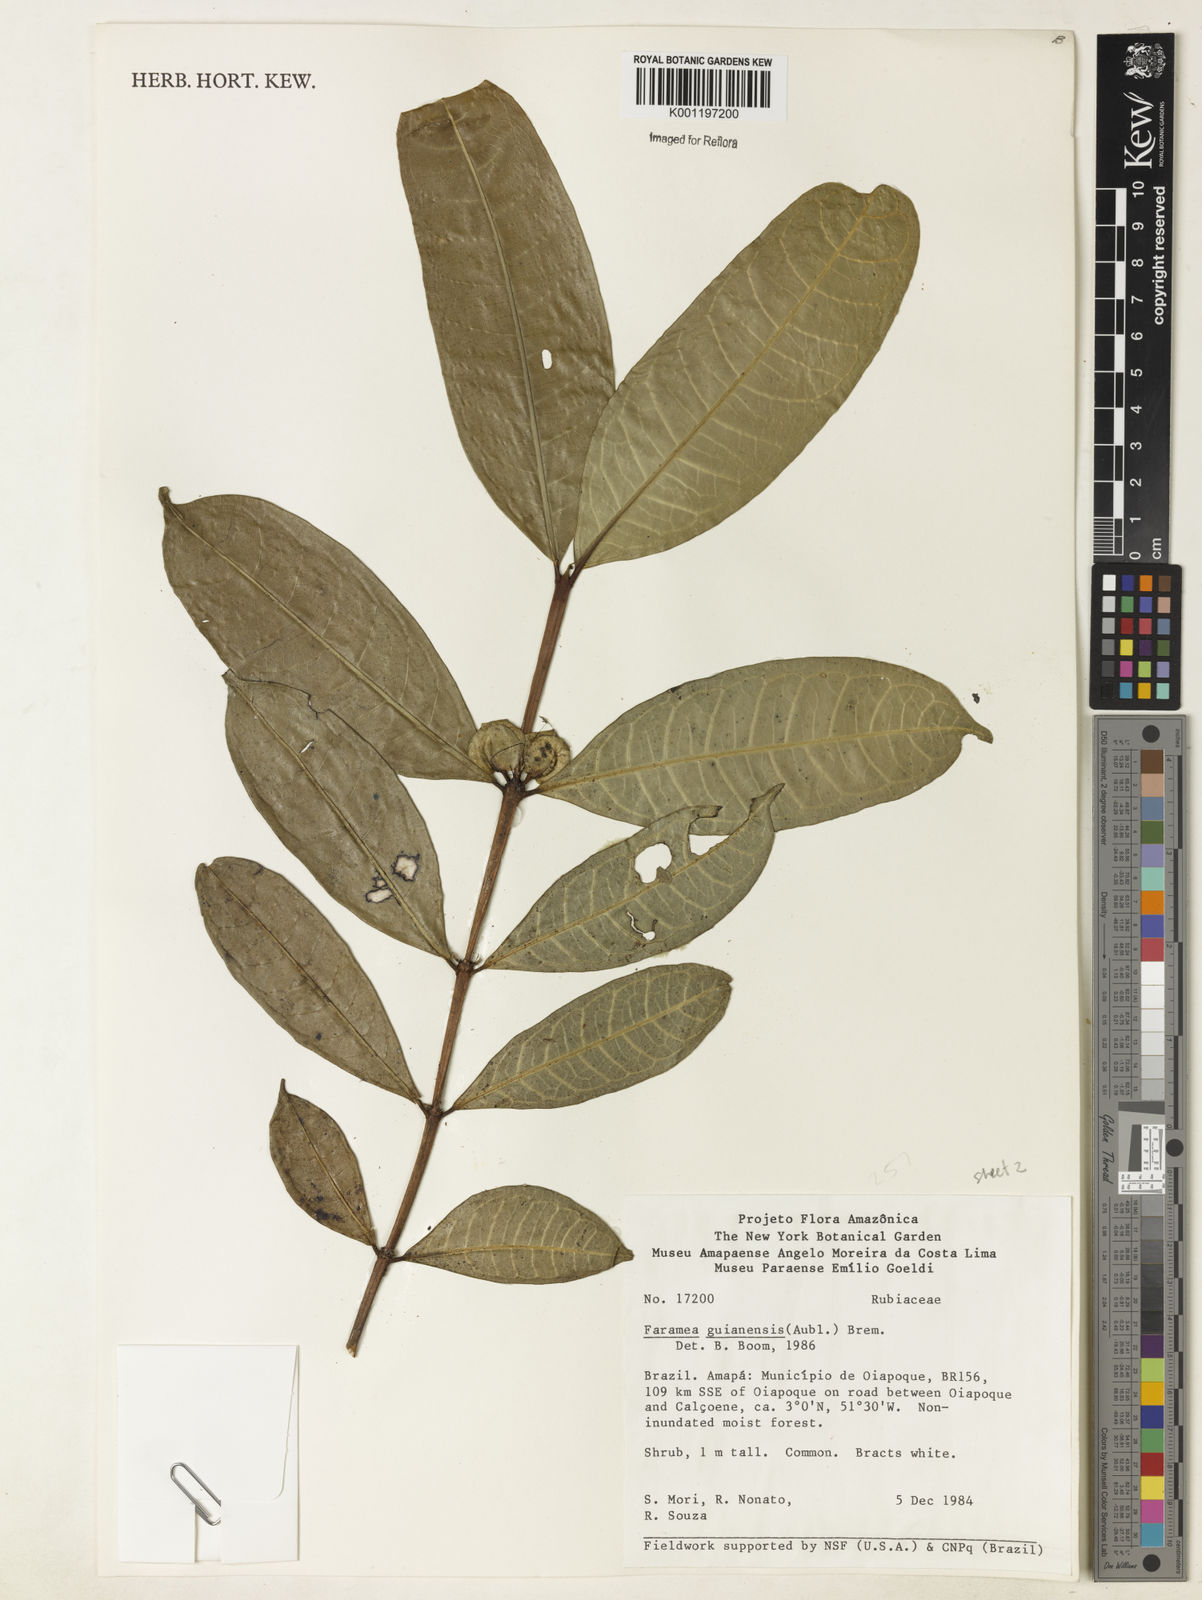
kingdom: Plantae
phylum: Tracheophyta
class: Magnoliopsida
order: Gentianales
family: Rubiaceae
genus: Faramea
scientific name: Faramea guianensis
